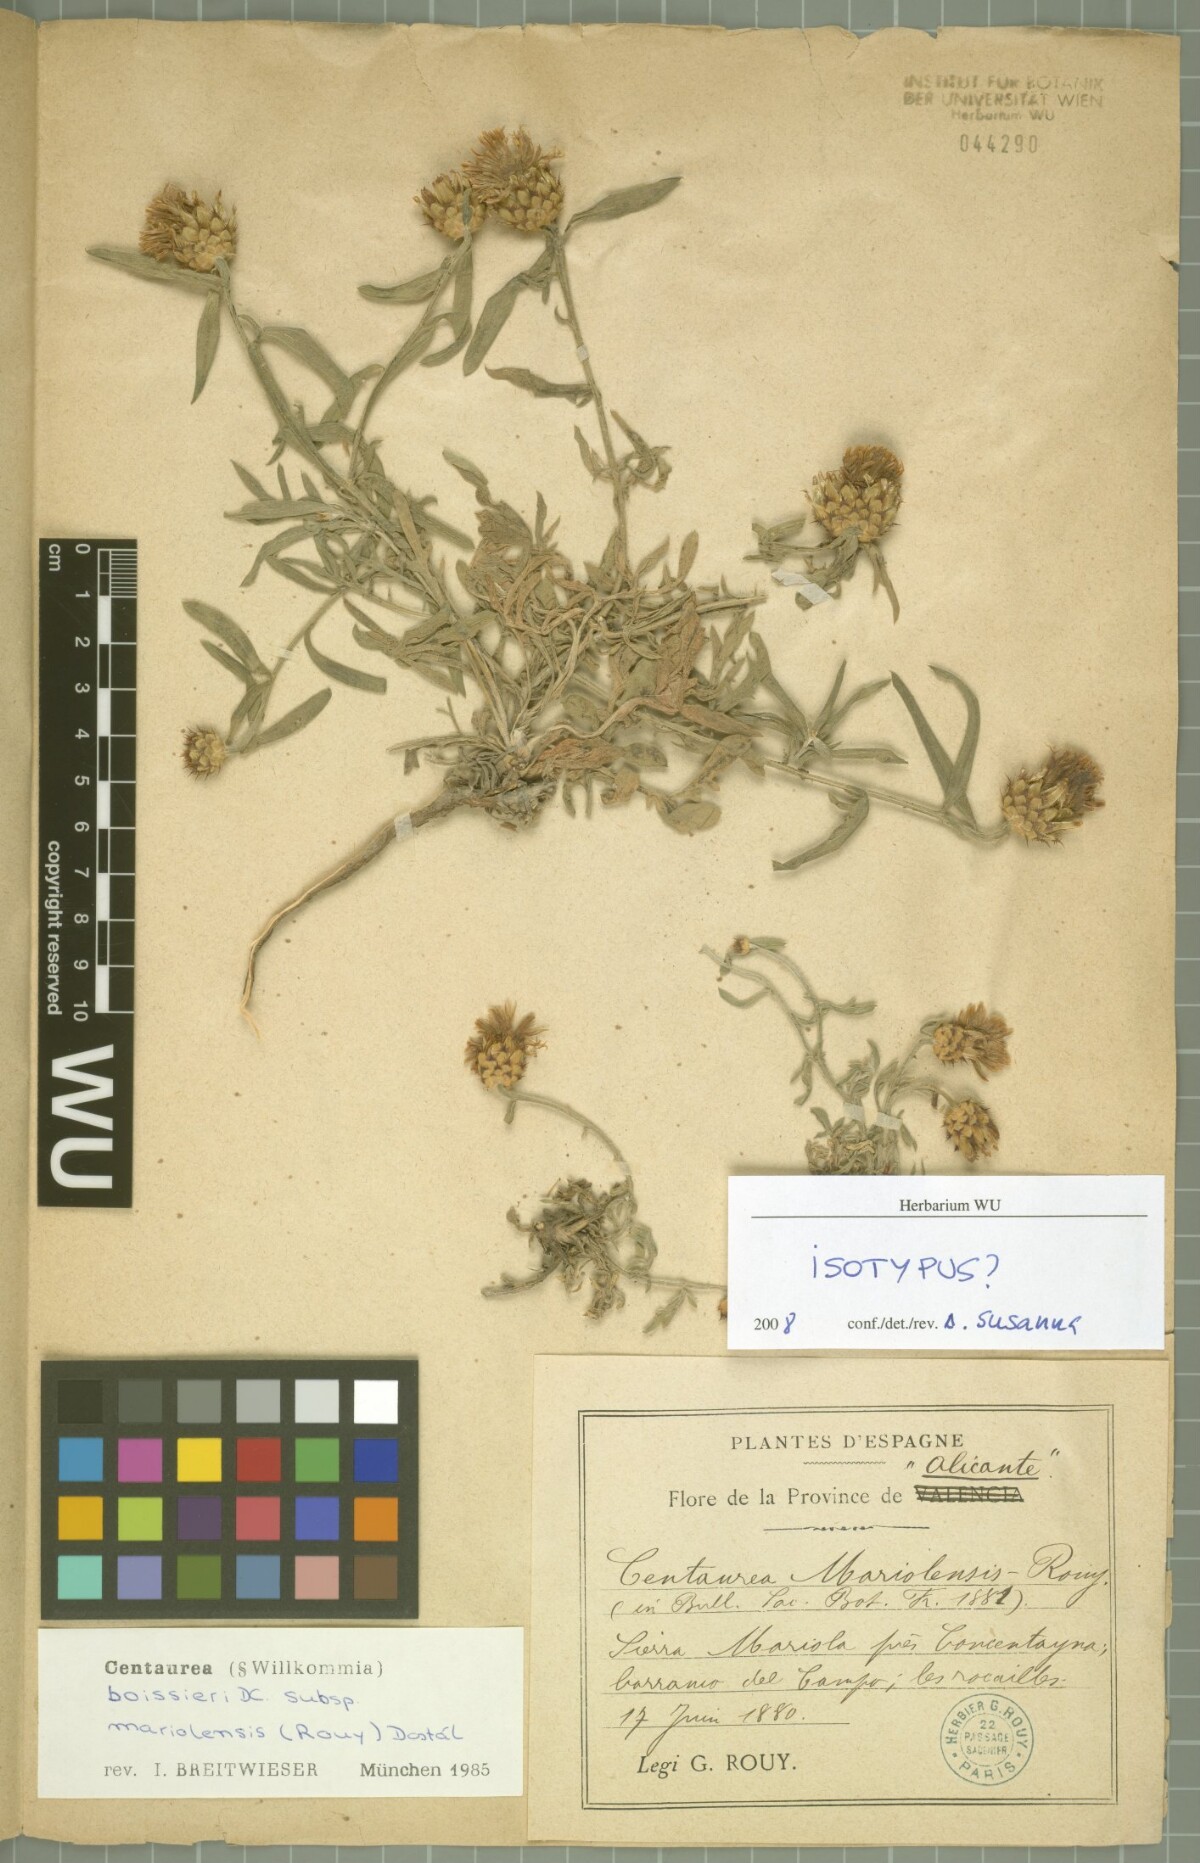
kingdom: Plantae
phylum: Tracheophyta
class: Magnoliopsida
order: Asterales
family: Asteraceae
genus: Centaurea
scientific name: Centaurea boissieri
